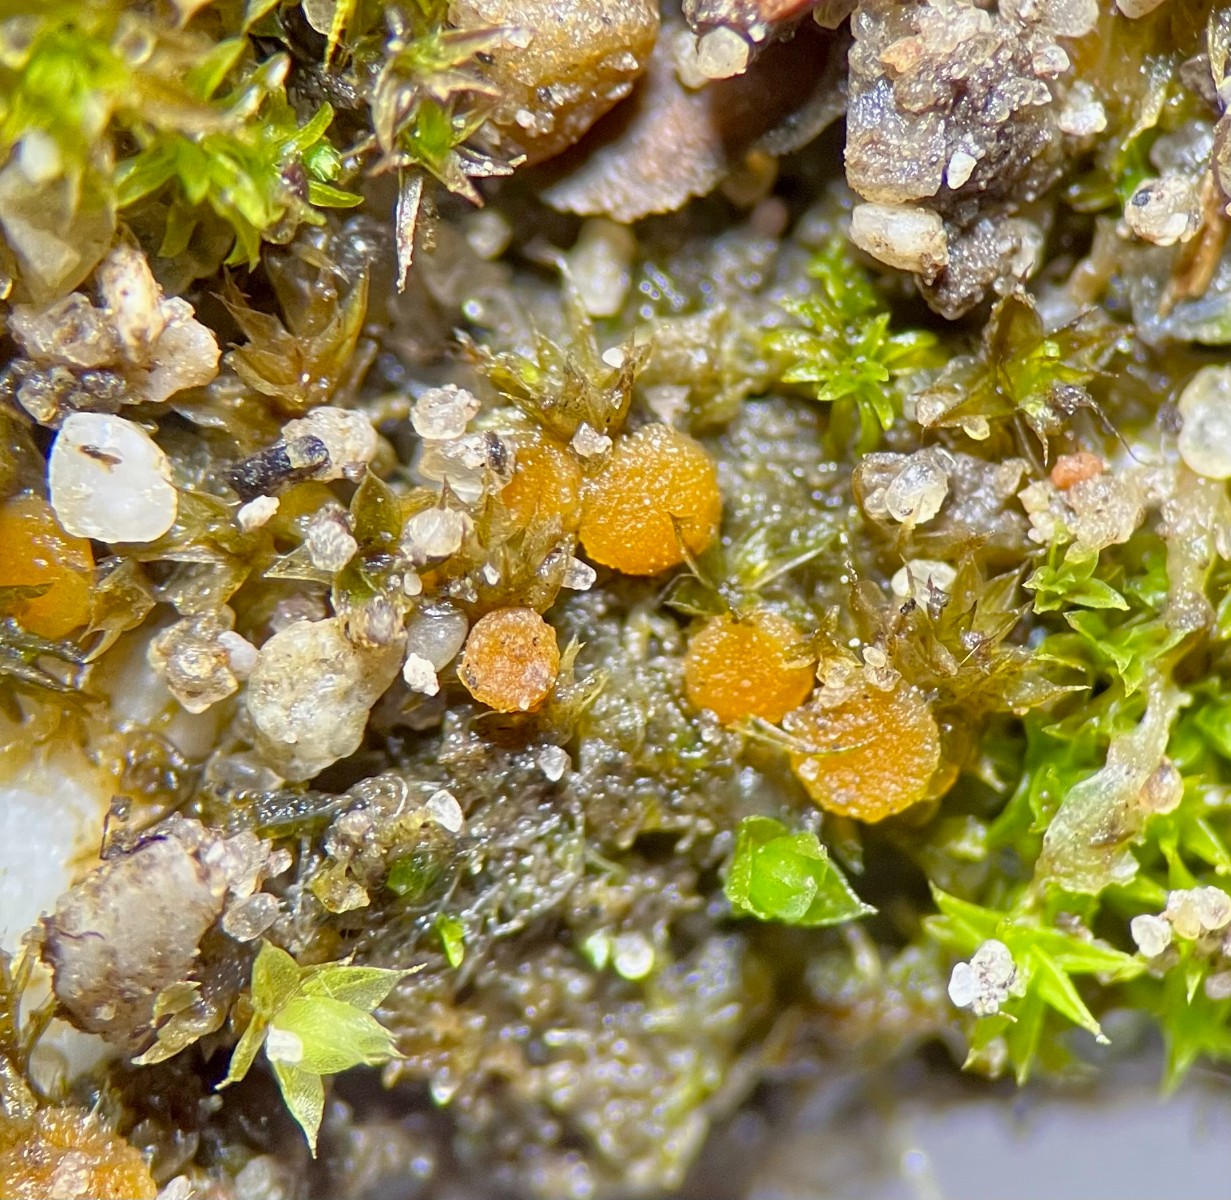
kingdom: Fungi
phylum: Ascomycota
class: Pezizomycetes
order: Pezizales
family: Pyronemataceae
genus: Inermisia
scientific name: Inermisia gyalectoides
